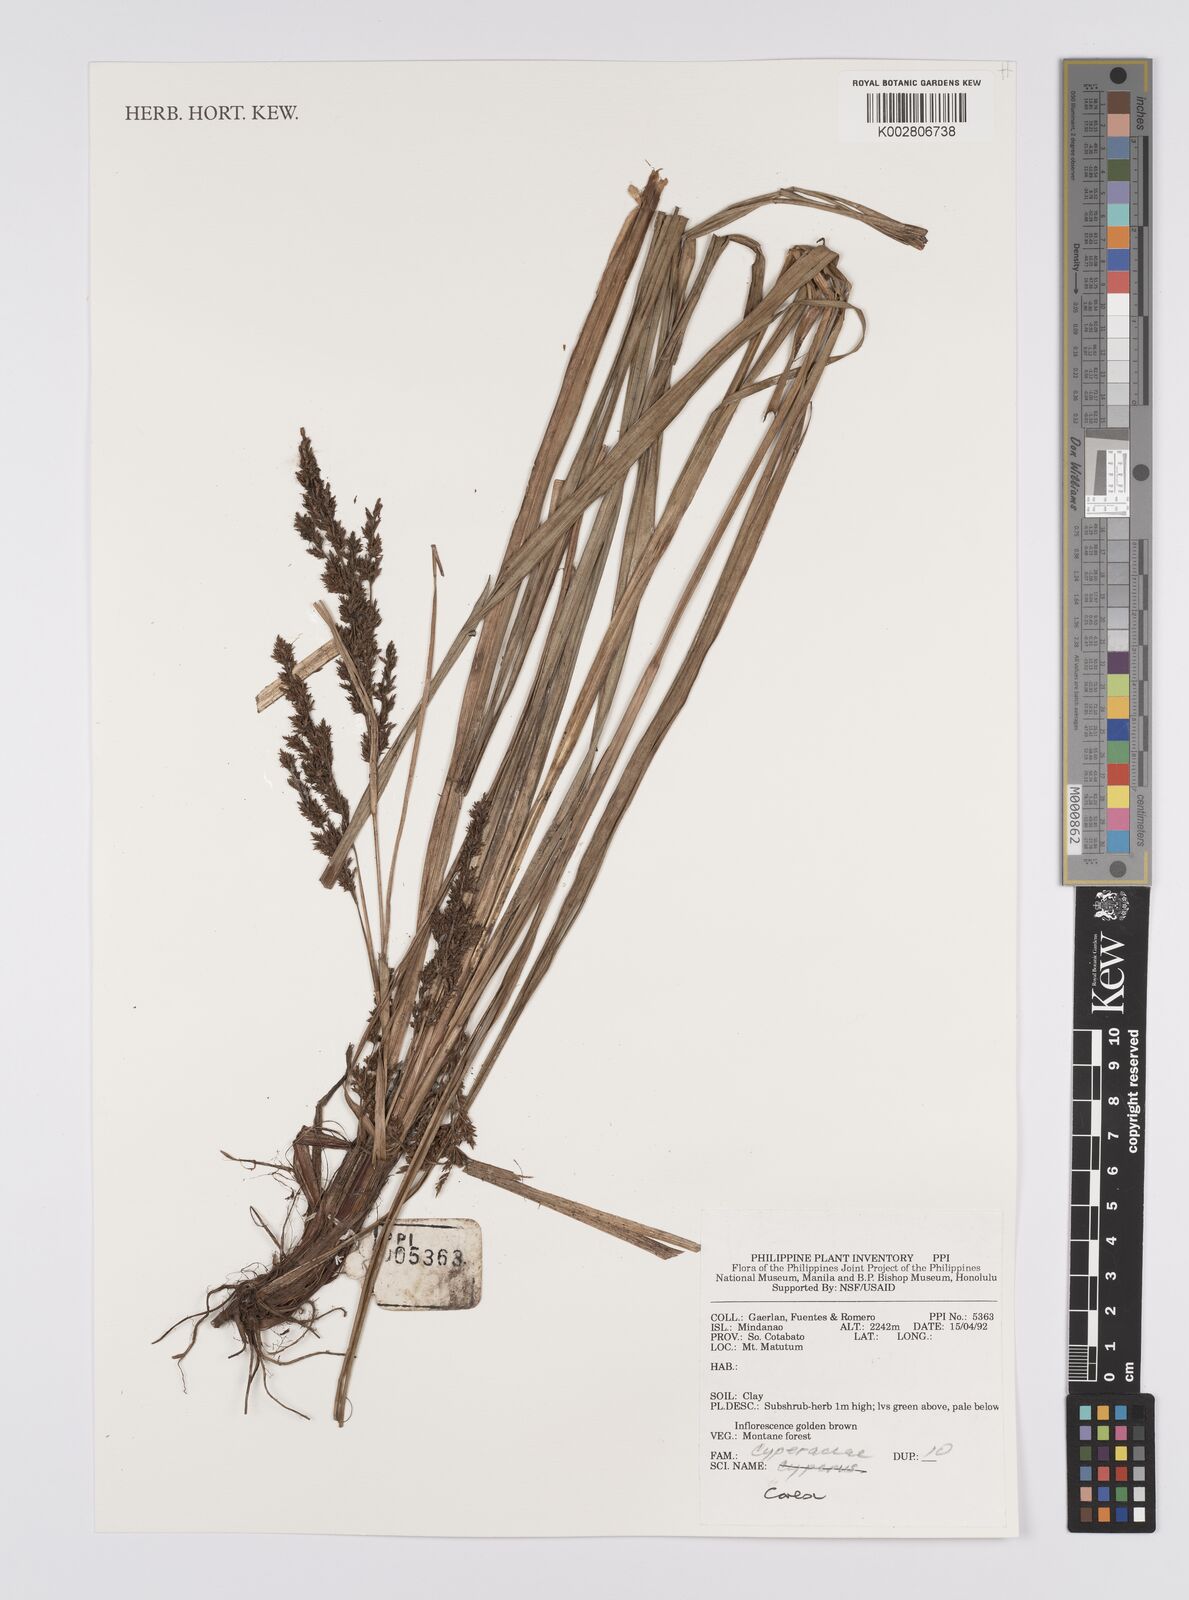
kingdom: Plantae
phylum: Tracheophyta
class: Liliopsida
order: Poales
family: Cyperaceae
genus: Carex
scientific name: Carex
